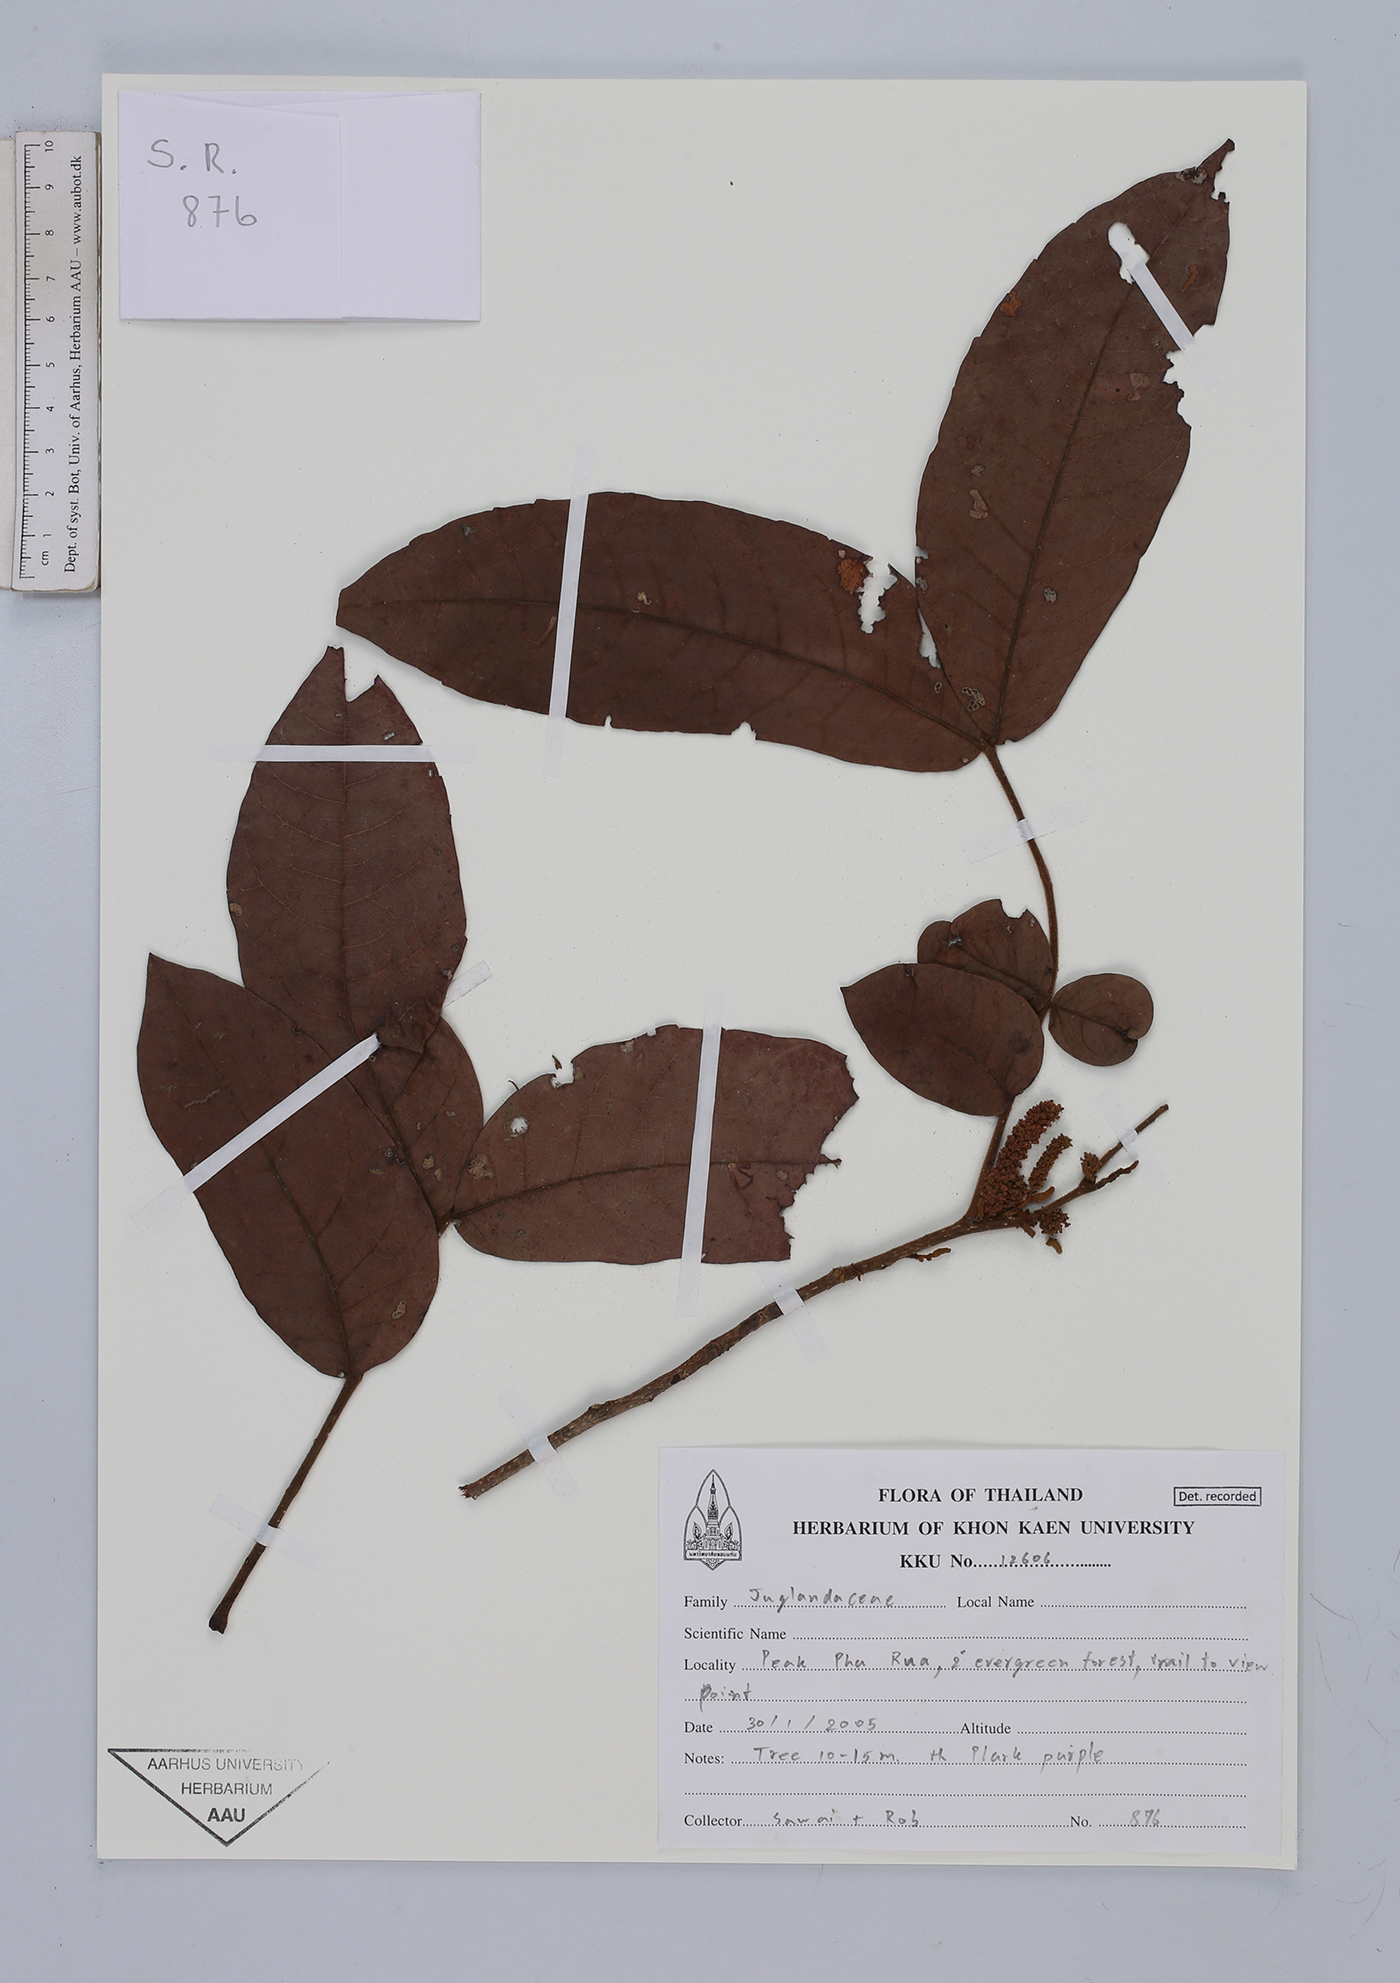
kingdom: Plantae
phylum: Tracheophyta
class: Magnoliopsida
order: Fagales
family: Juglandaceae
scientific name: Juglandaceae
